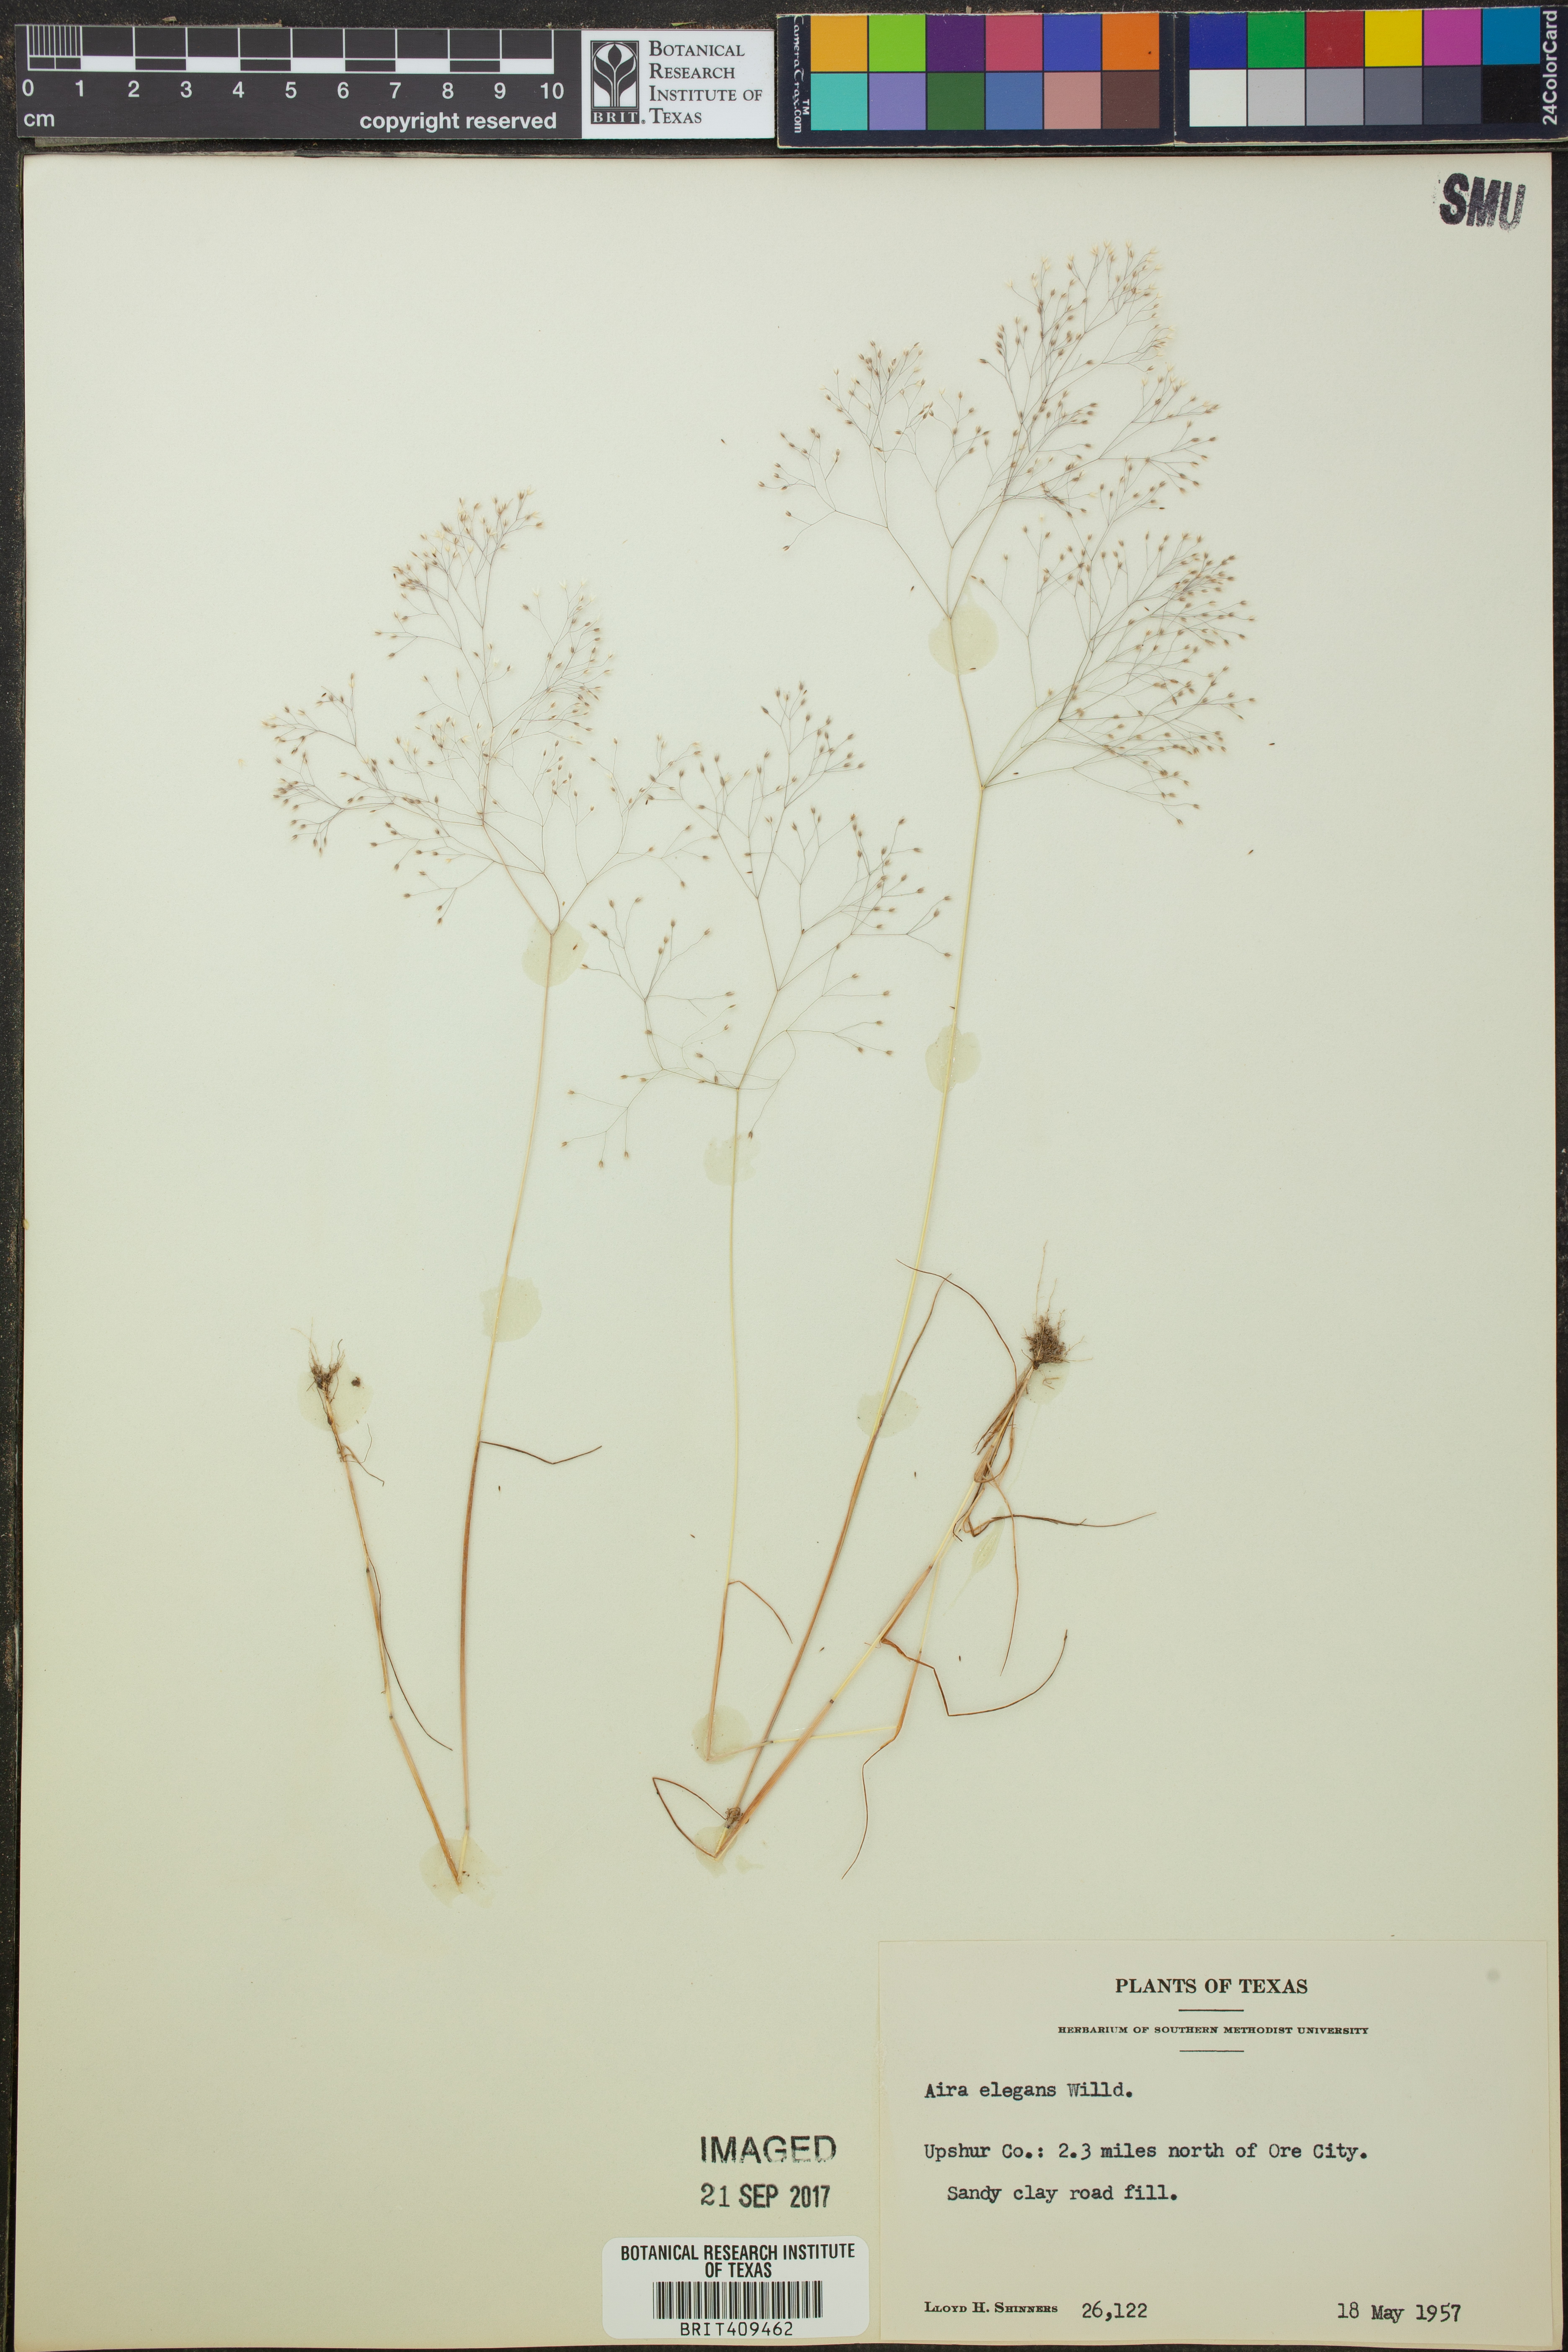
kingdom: Plantae
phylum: Tracheophyta
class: Liliopsida
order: Poales
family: Poaceae
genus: Aira
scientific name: Aira elegans
